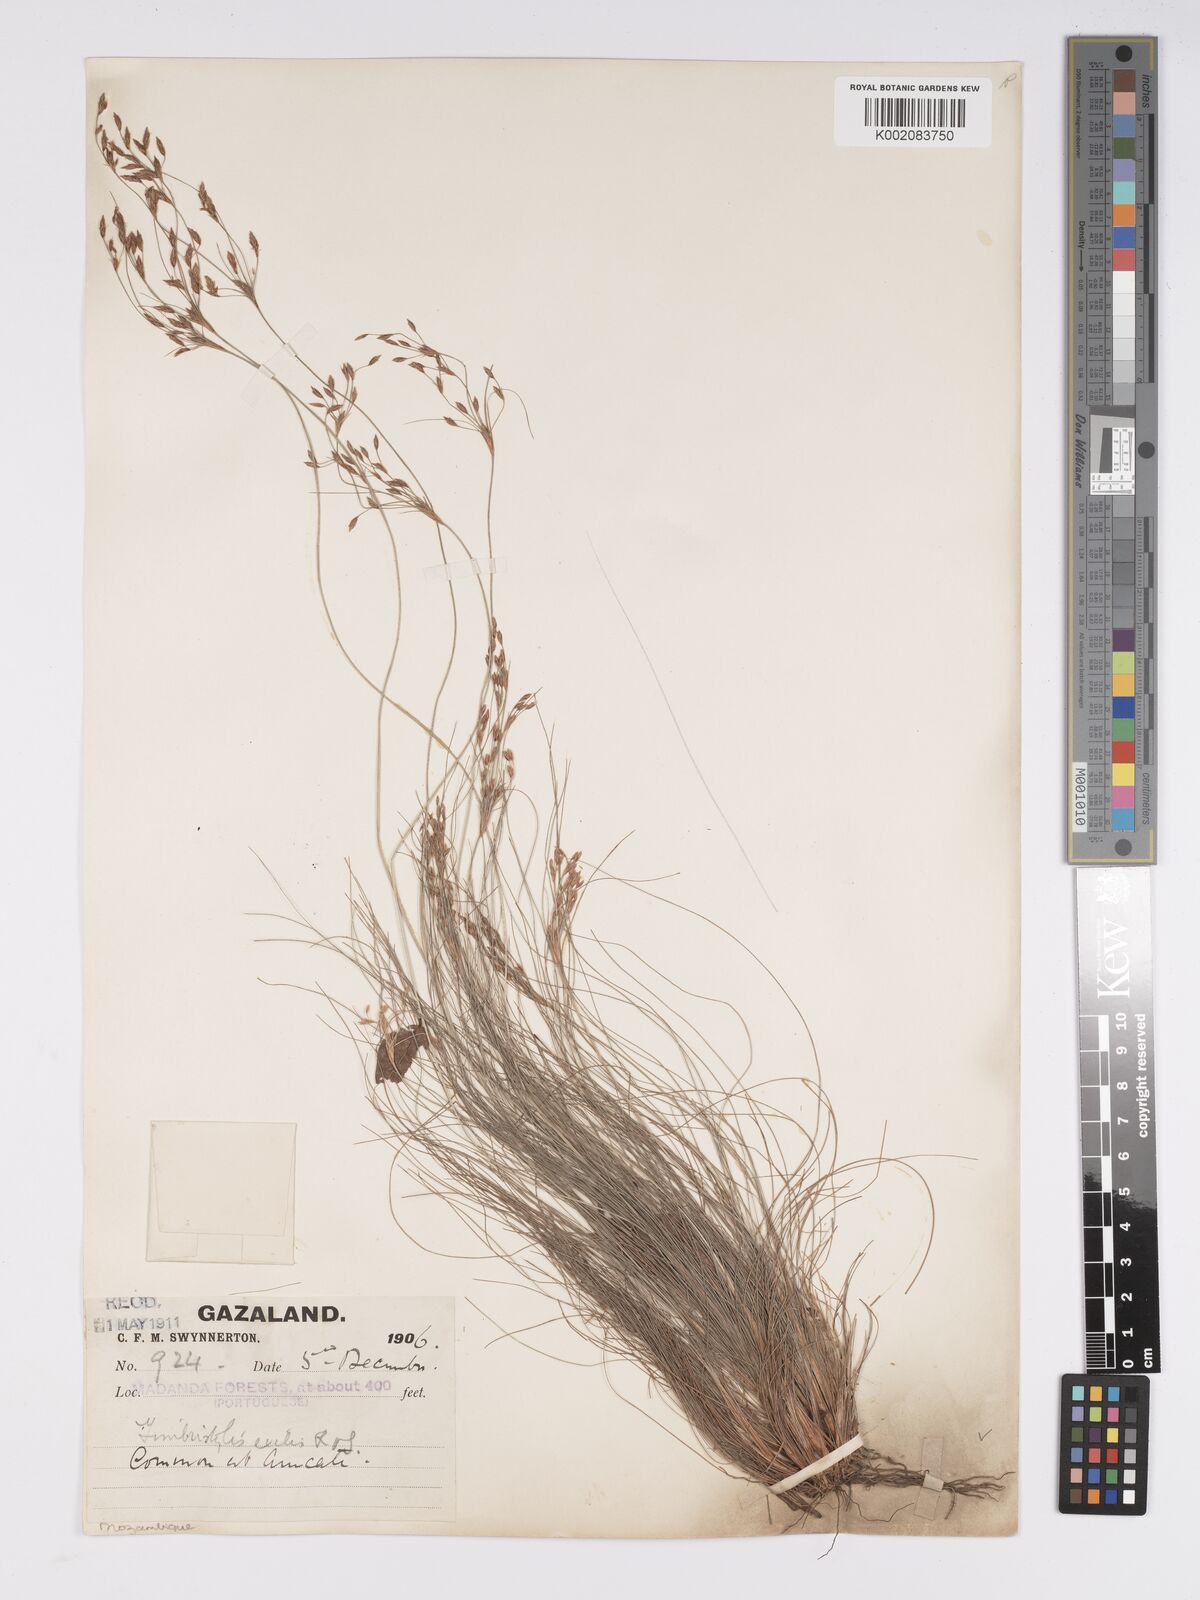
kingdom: Plantae
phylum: Tracheophyta
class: Liliopsida
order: Poales
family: Cyperaceae
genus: Bulbostylis
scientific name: Bulbostylis hispidula
